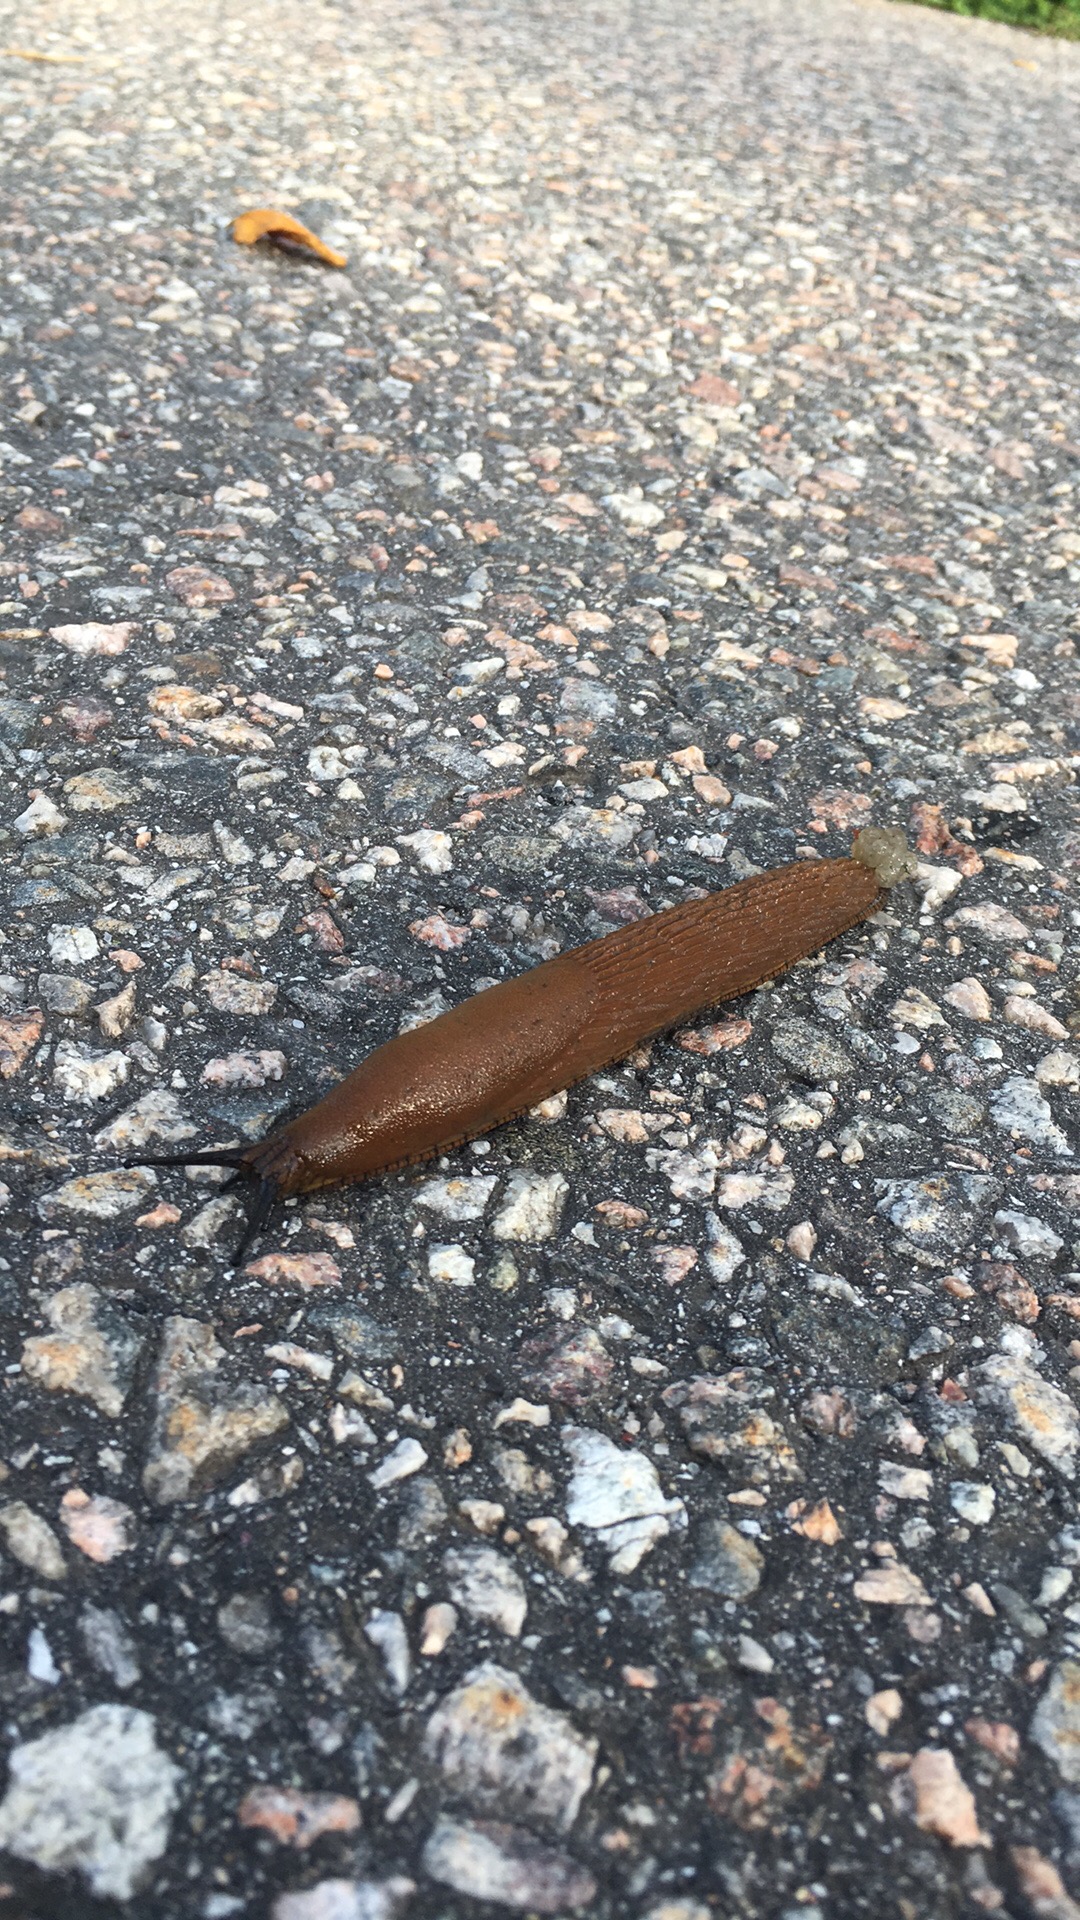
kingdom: Animalia
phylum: Mollusca
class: Gastropoda
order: Stylommatophora
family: Arionidae
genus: Arion
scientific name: Arion vulgaris
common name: Lusitanian slug
